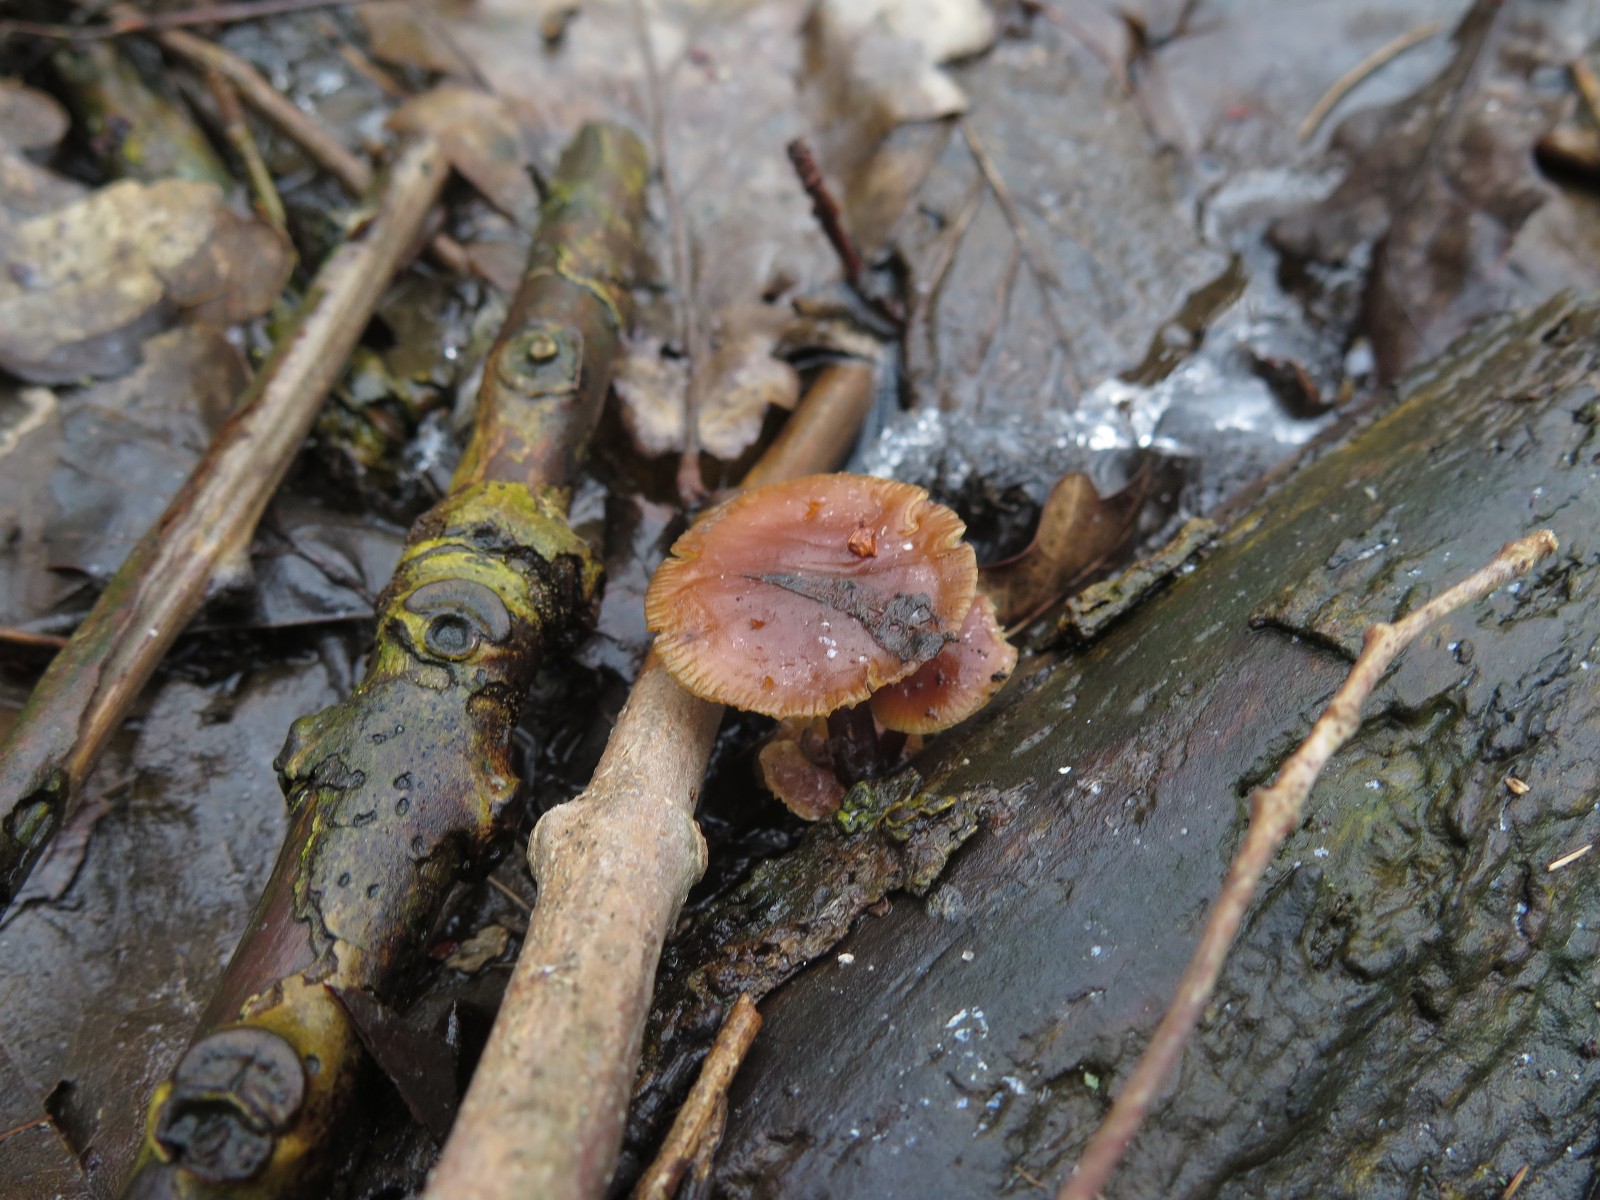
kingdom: Fungi
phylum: Basidiomycota
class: Agaricomycetes
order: Agaricales
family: Tubariaceae
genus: Tubaria
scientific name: Tubaria furfuracea
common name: kliddet fnughat
